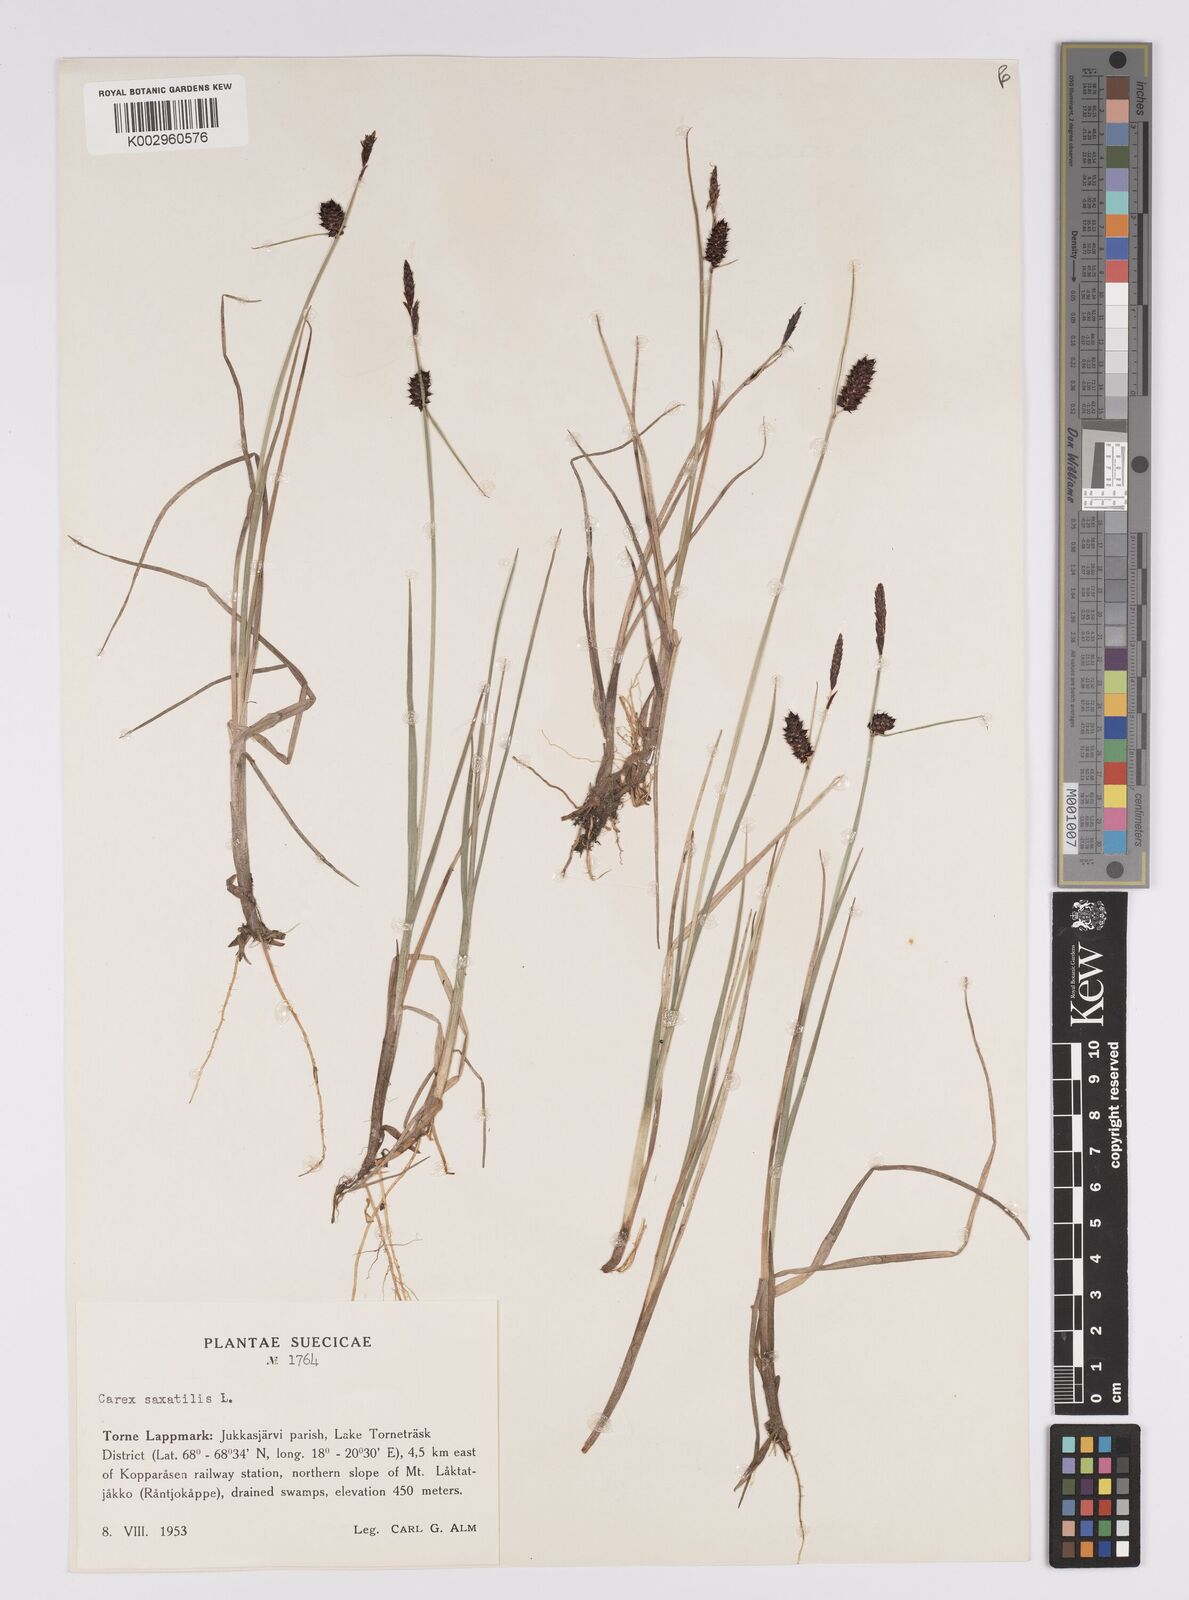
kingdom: Plantae
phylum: Tracheophyta
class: Liliopsida
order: Poales
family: Cyperaceae
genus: Carex
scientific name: Carex saxatilis
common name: Russet sedge
